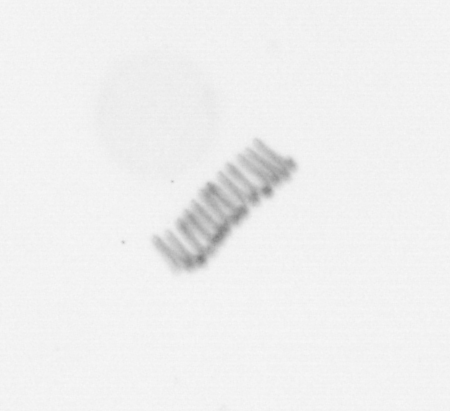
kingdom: Chromista
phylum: Ochrophyta
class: Bacillariophyceae
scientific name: Bacillariophyceae
